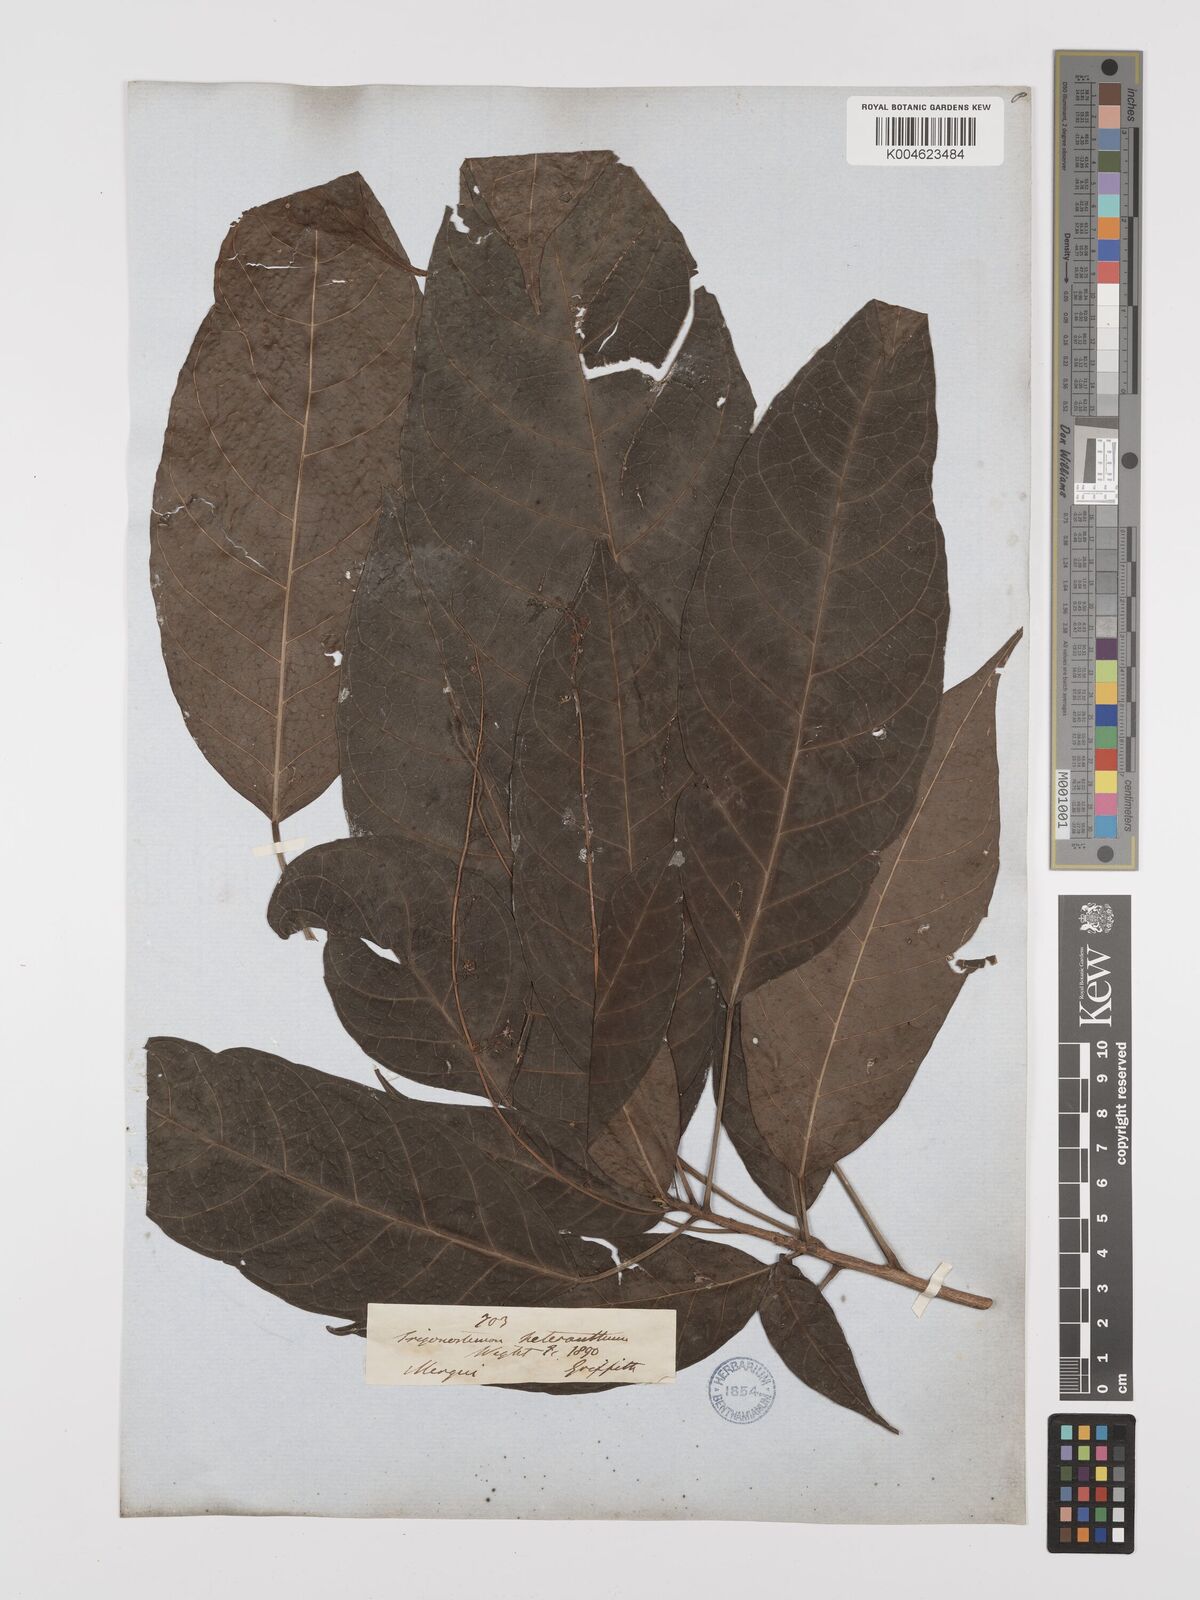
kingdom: Plantae
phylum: Tracheophyta
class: Magnoliopsida
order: Malpighiales
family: Euphorbiaceae
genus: Trigonostemon
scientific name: Trigonostemon heteranthus
